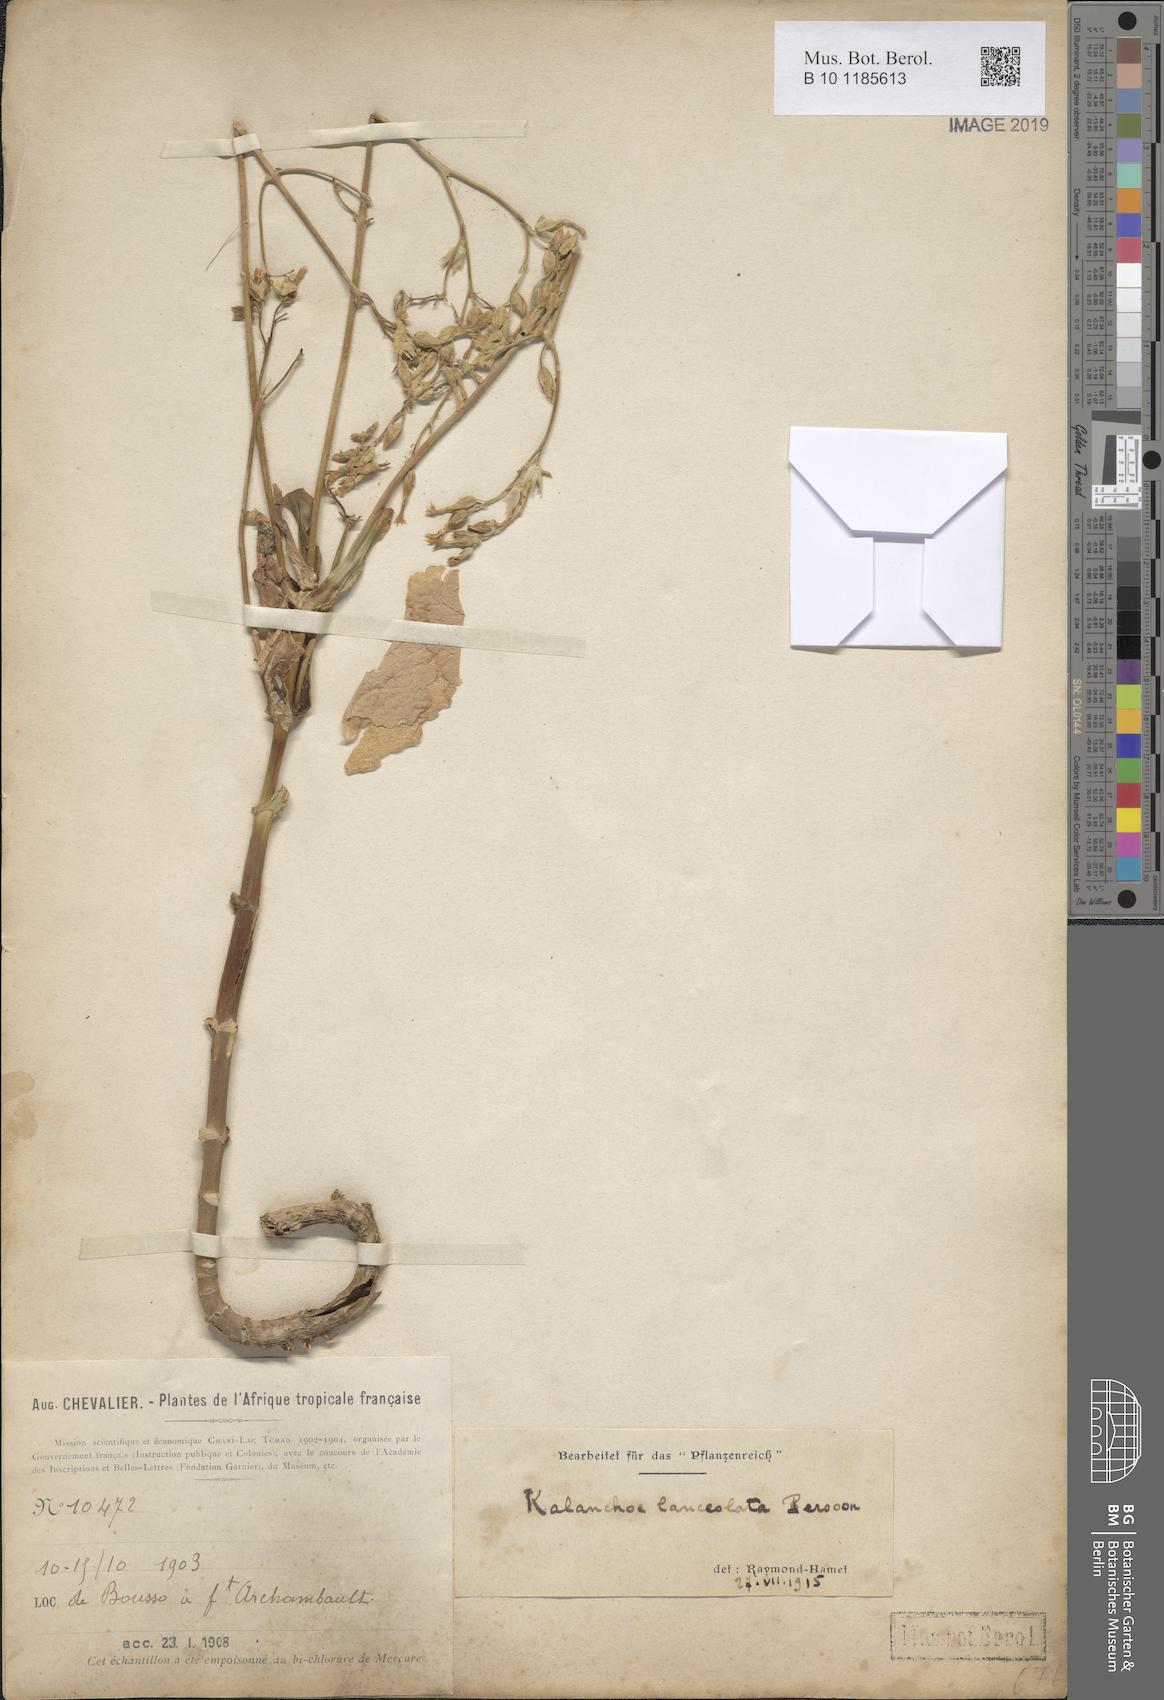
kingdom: Plantae
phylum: Tracheophyta
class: Magnoliopsida
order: Saxifragales
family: Crassulaceae
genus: Kalanchoe
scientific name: Kalanchoe lanceolata
